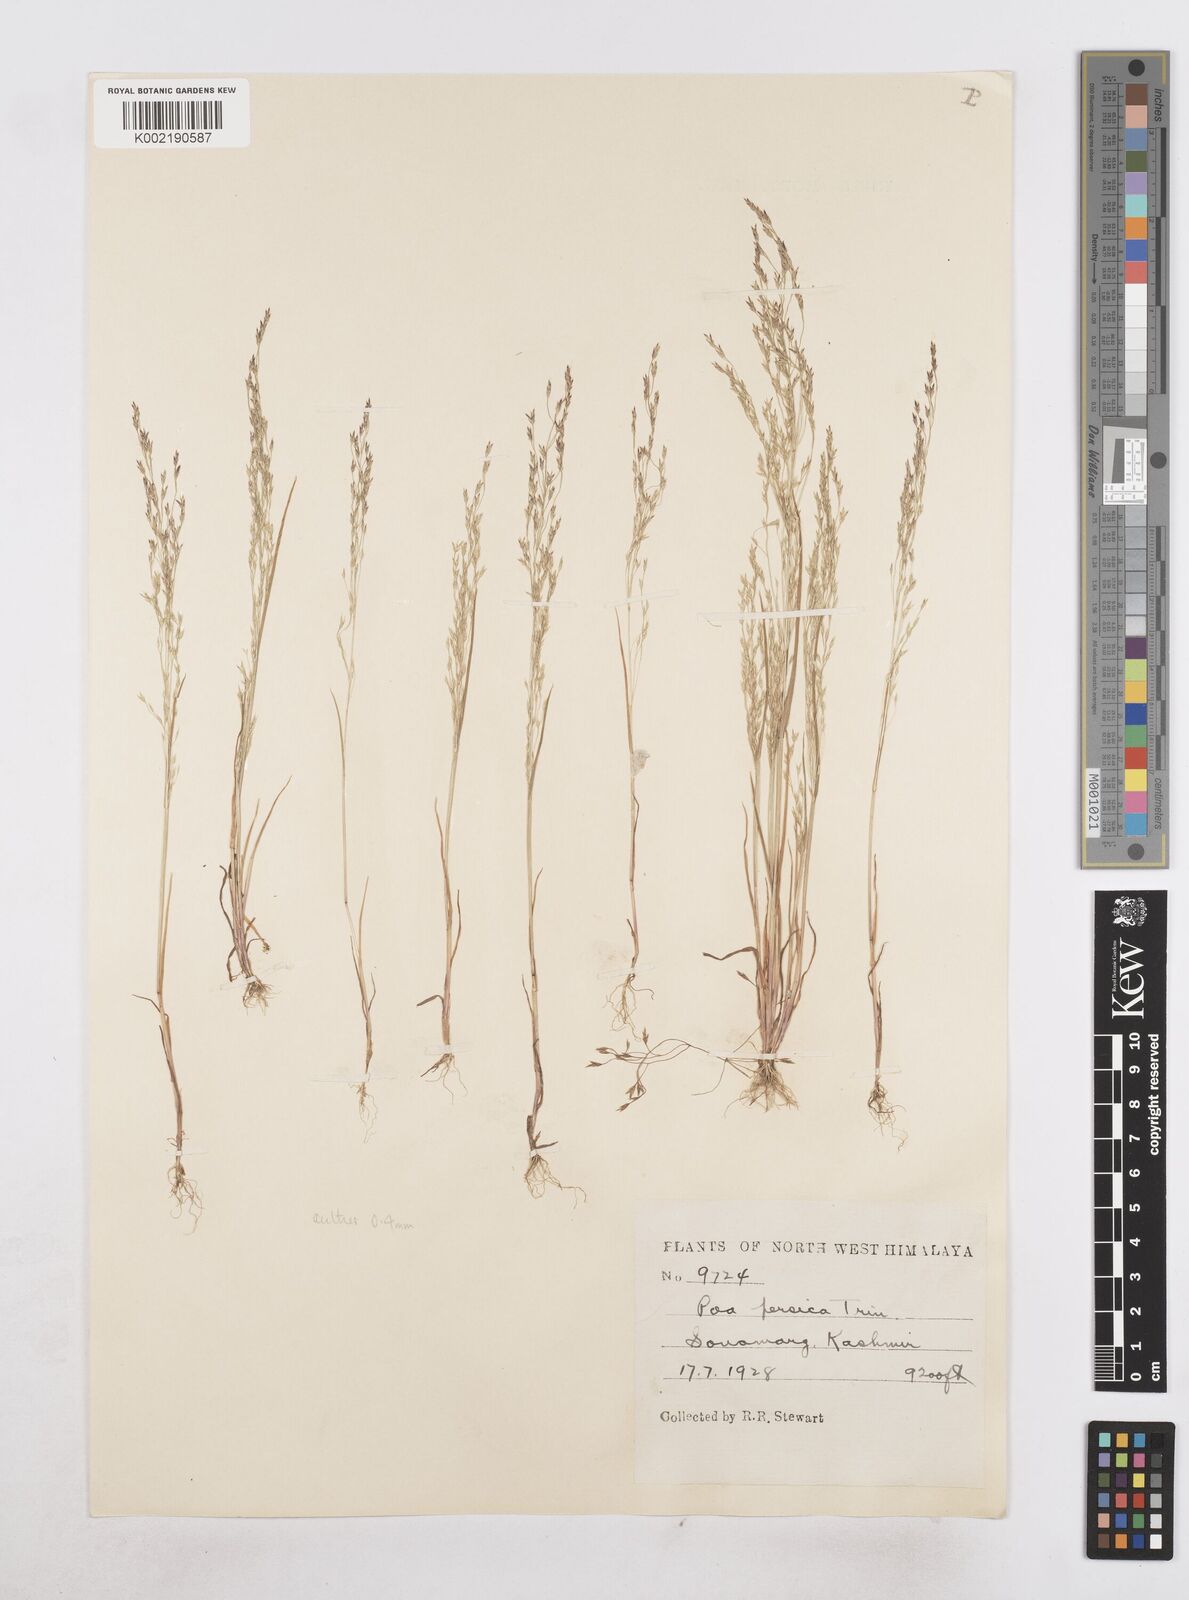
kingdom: Plantae
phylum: Tracheophyta
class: Liliopsida
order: Poales
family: Poaceae
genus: Poa
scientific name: Poa diaphora
